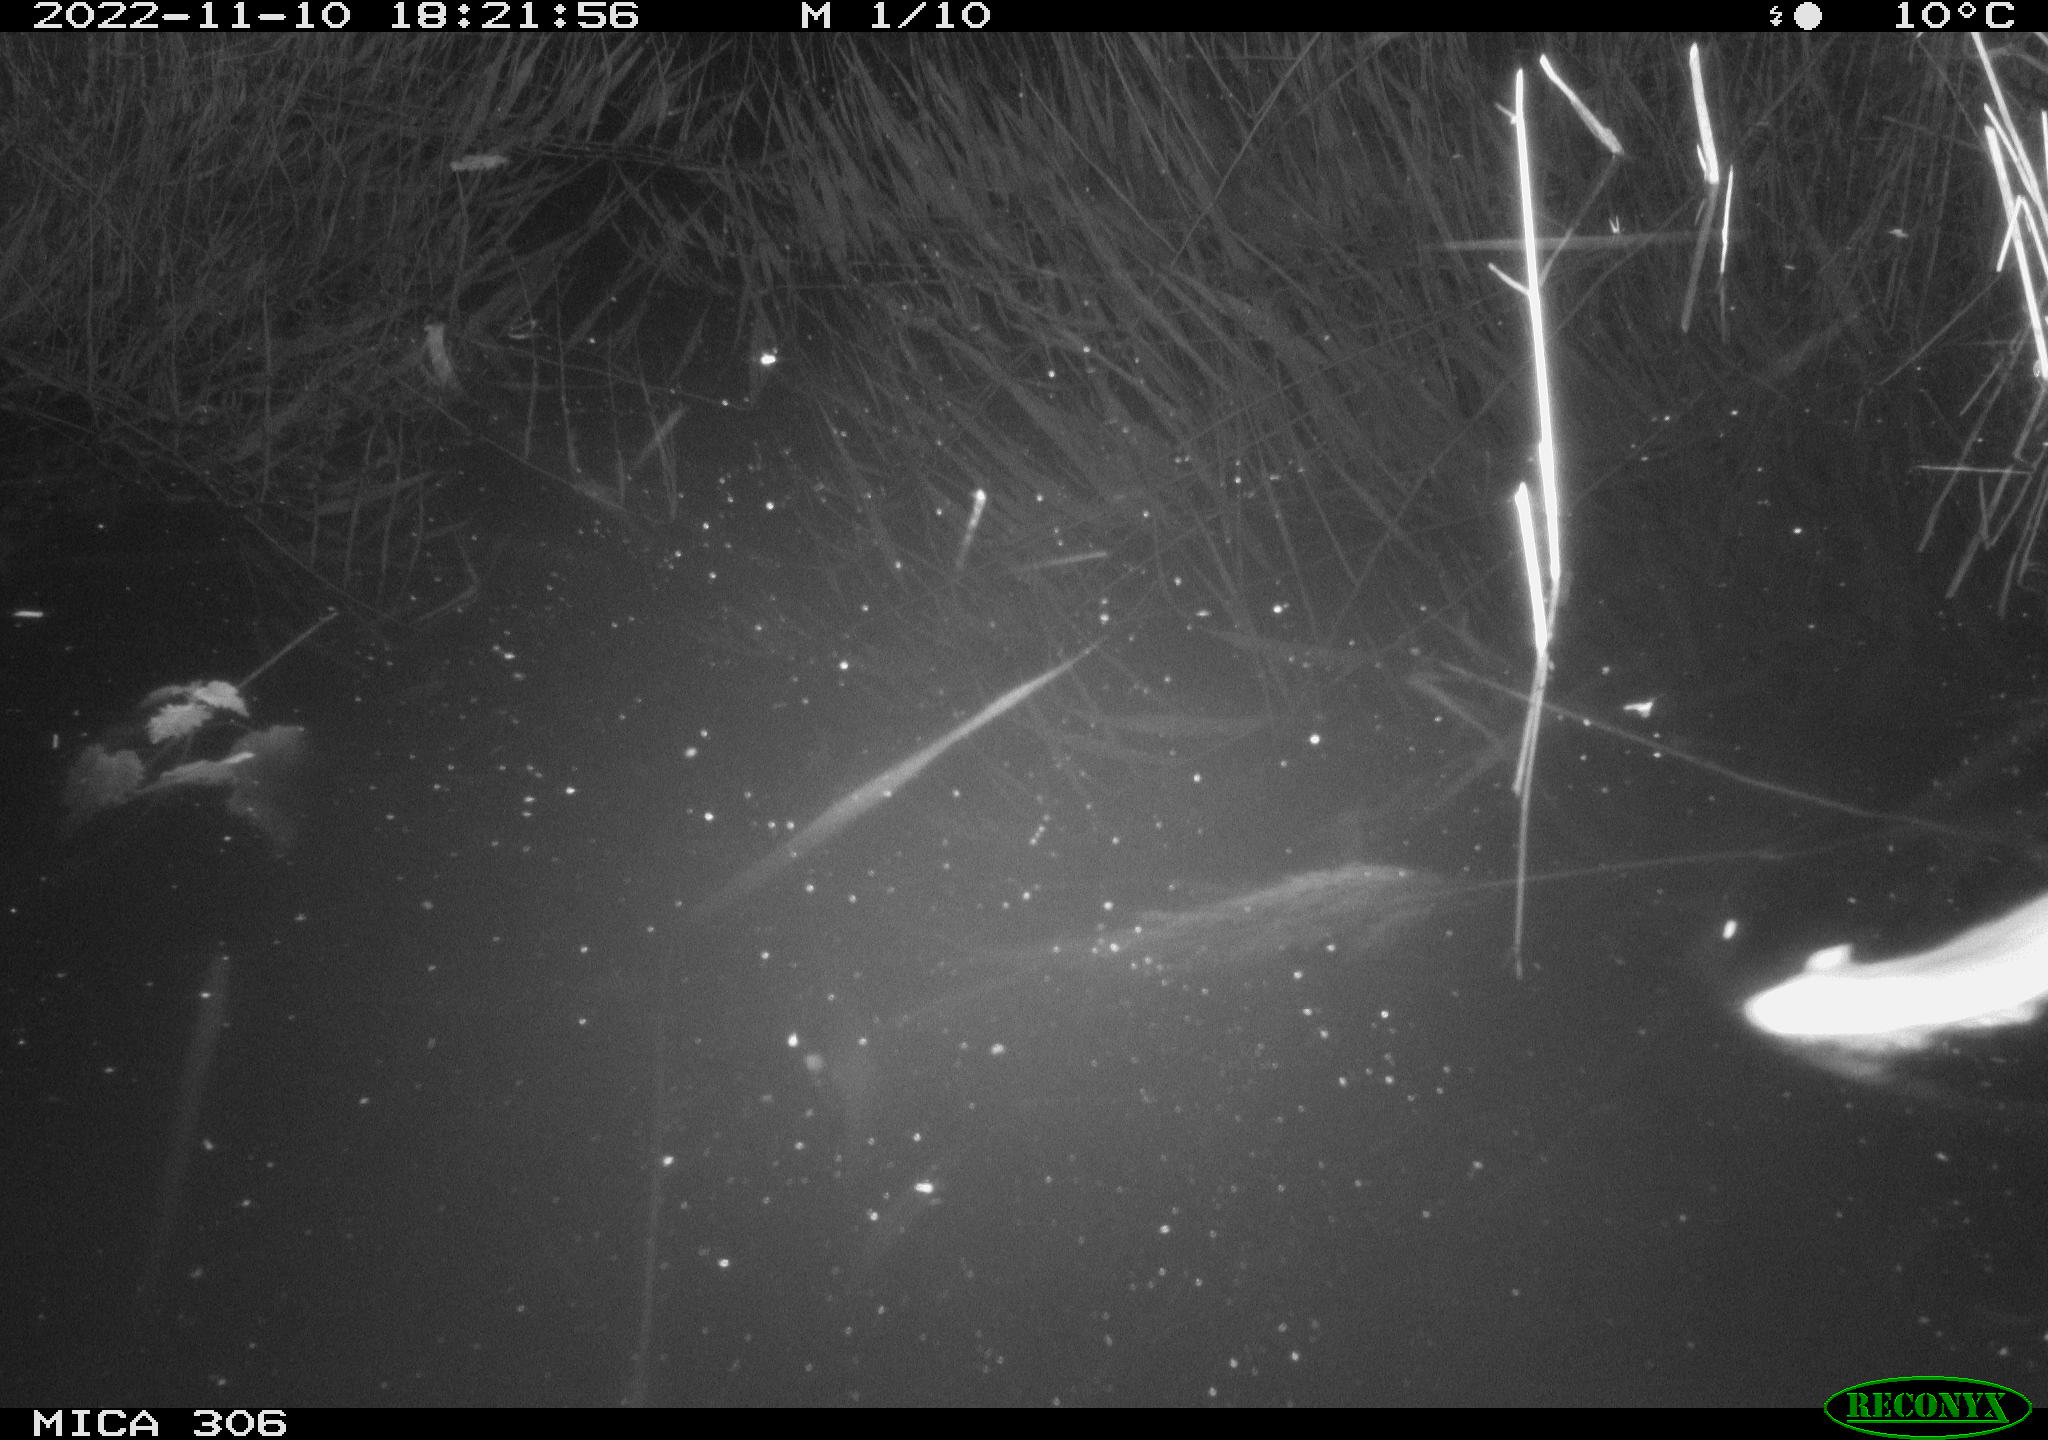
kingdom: Animalia
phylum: Chordata
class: Mammalia
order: Rodentia
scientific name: Rodentia
